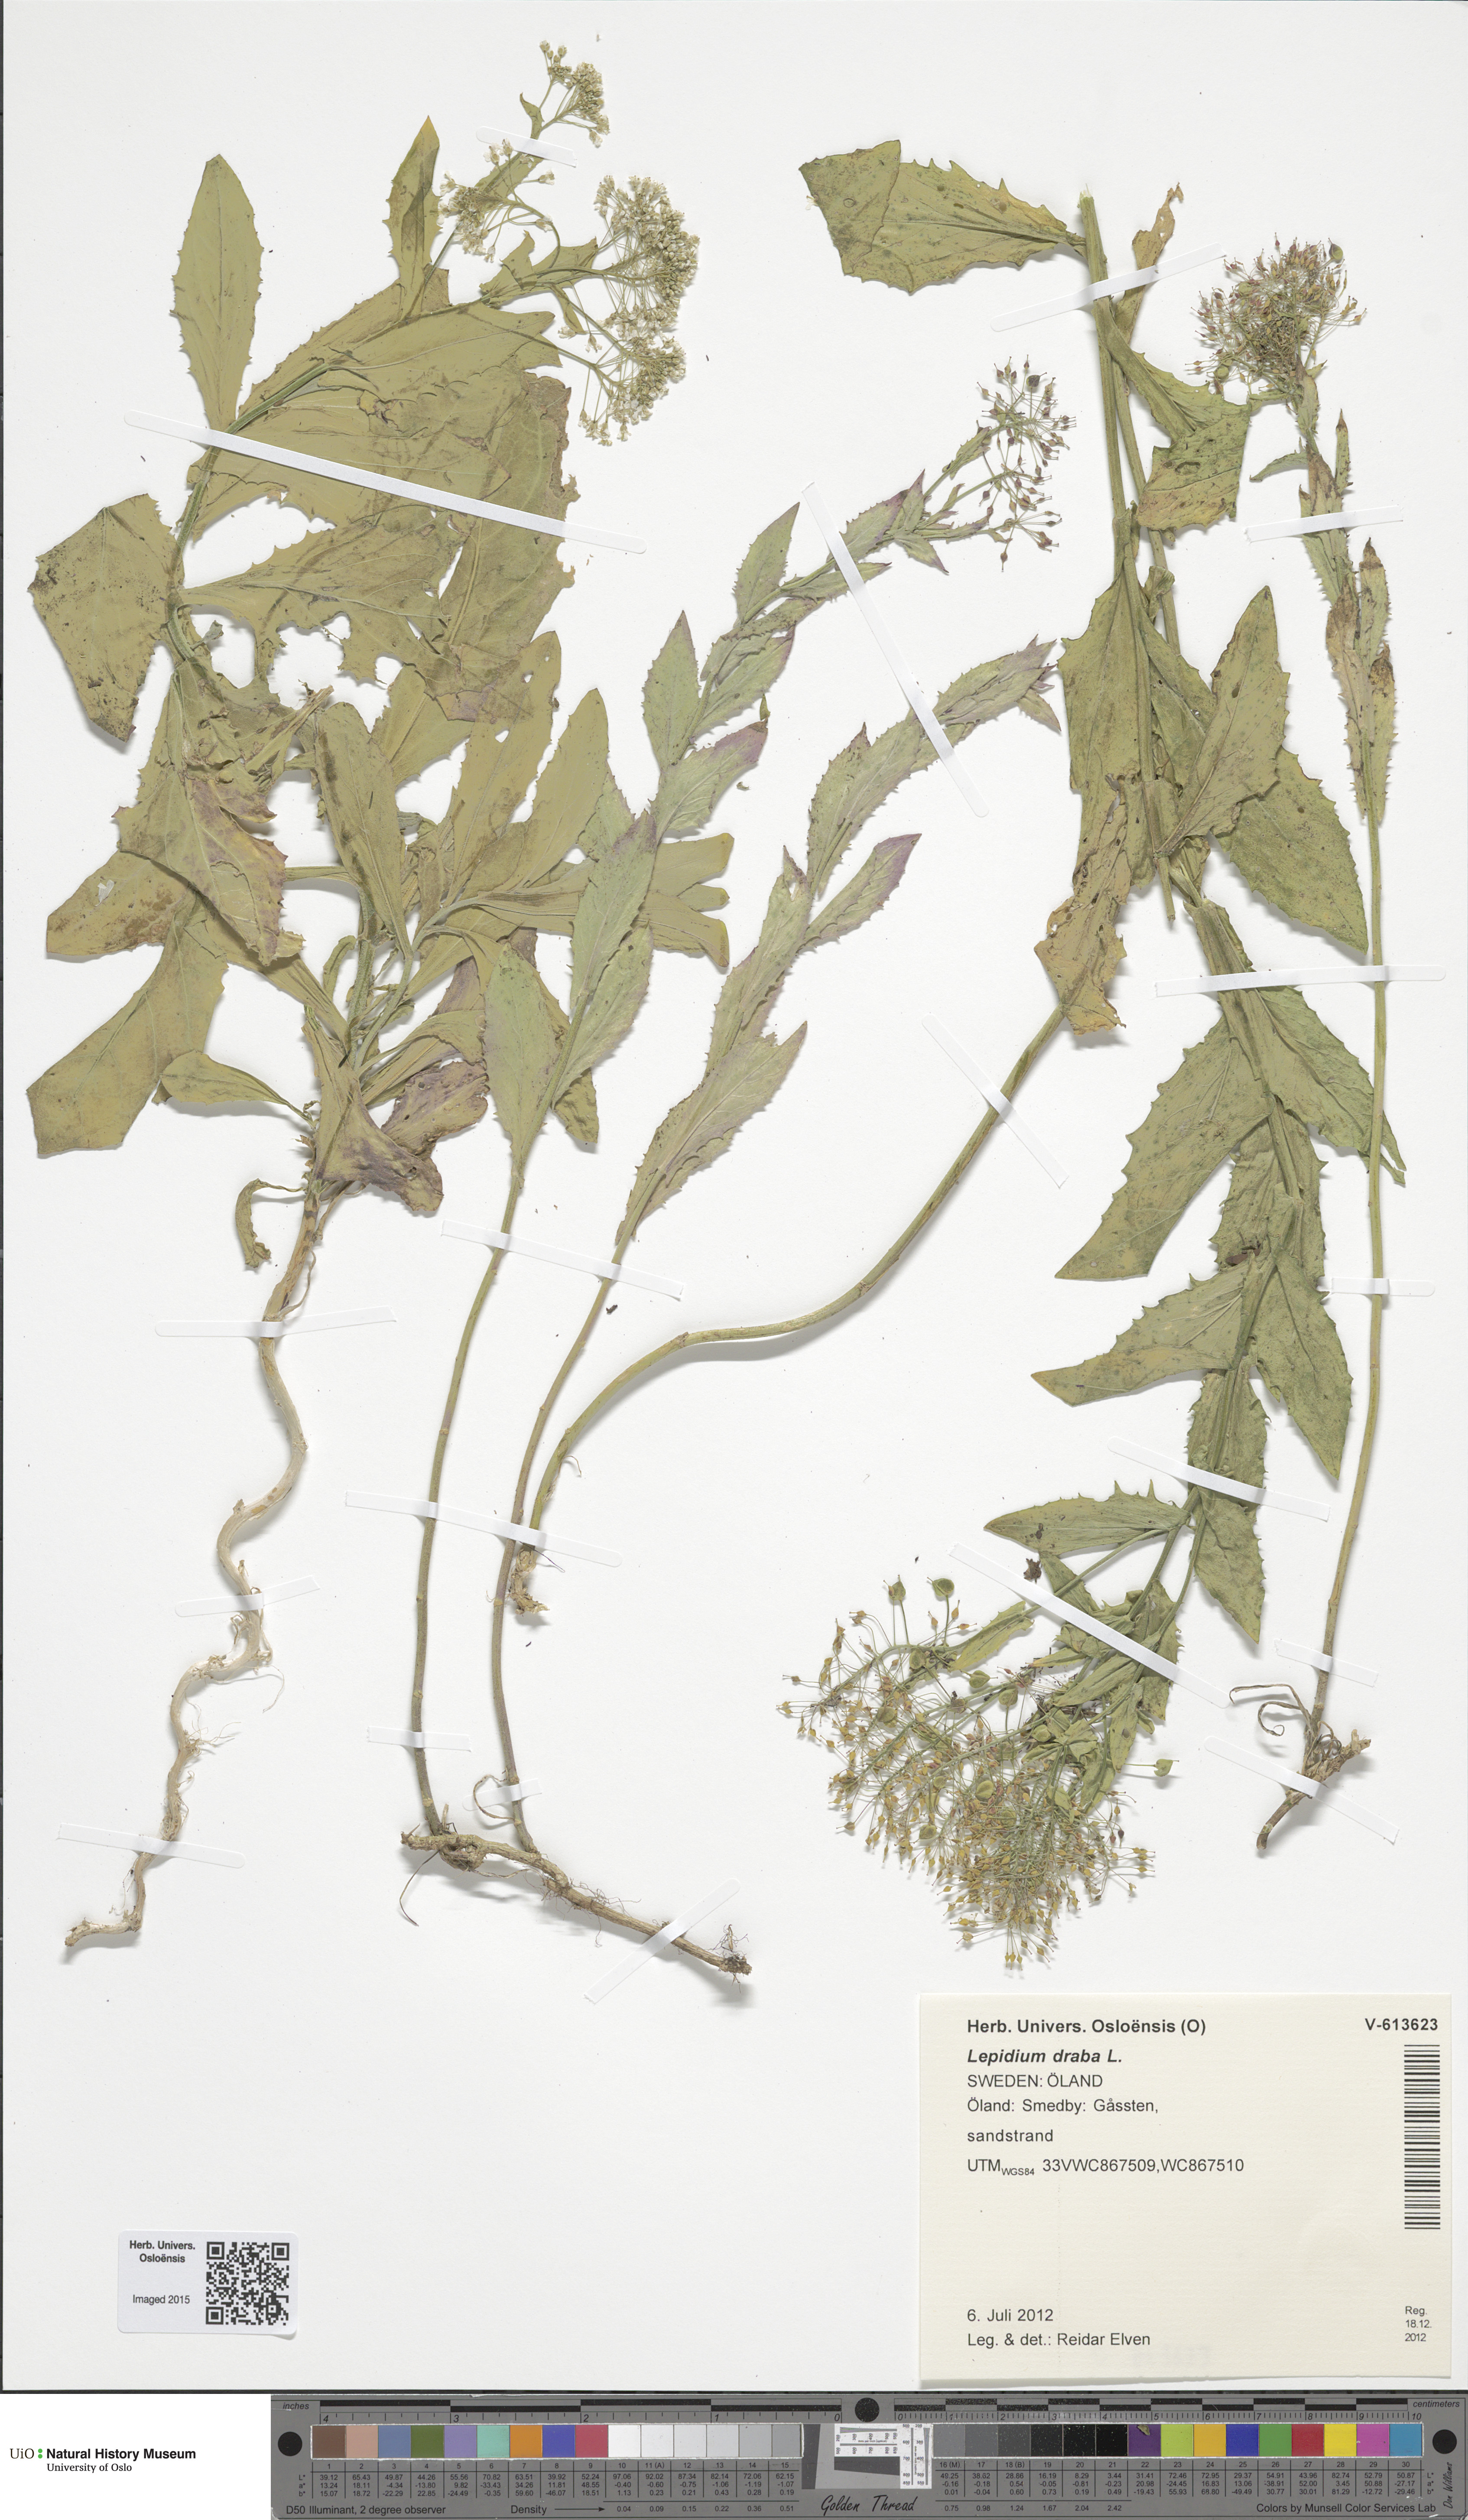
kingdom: Plantae
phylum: Tracheophyta
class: Magnoliopsida
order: Brassicales
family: Brassicaceae
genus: Lepidium
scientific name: Lepidium draba
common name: Hoary cress
